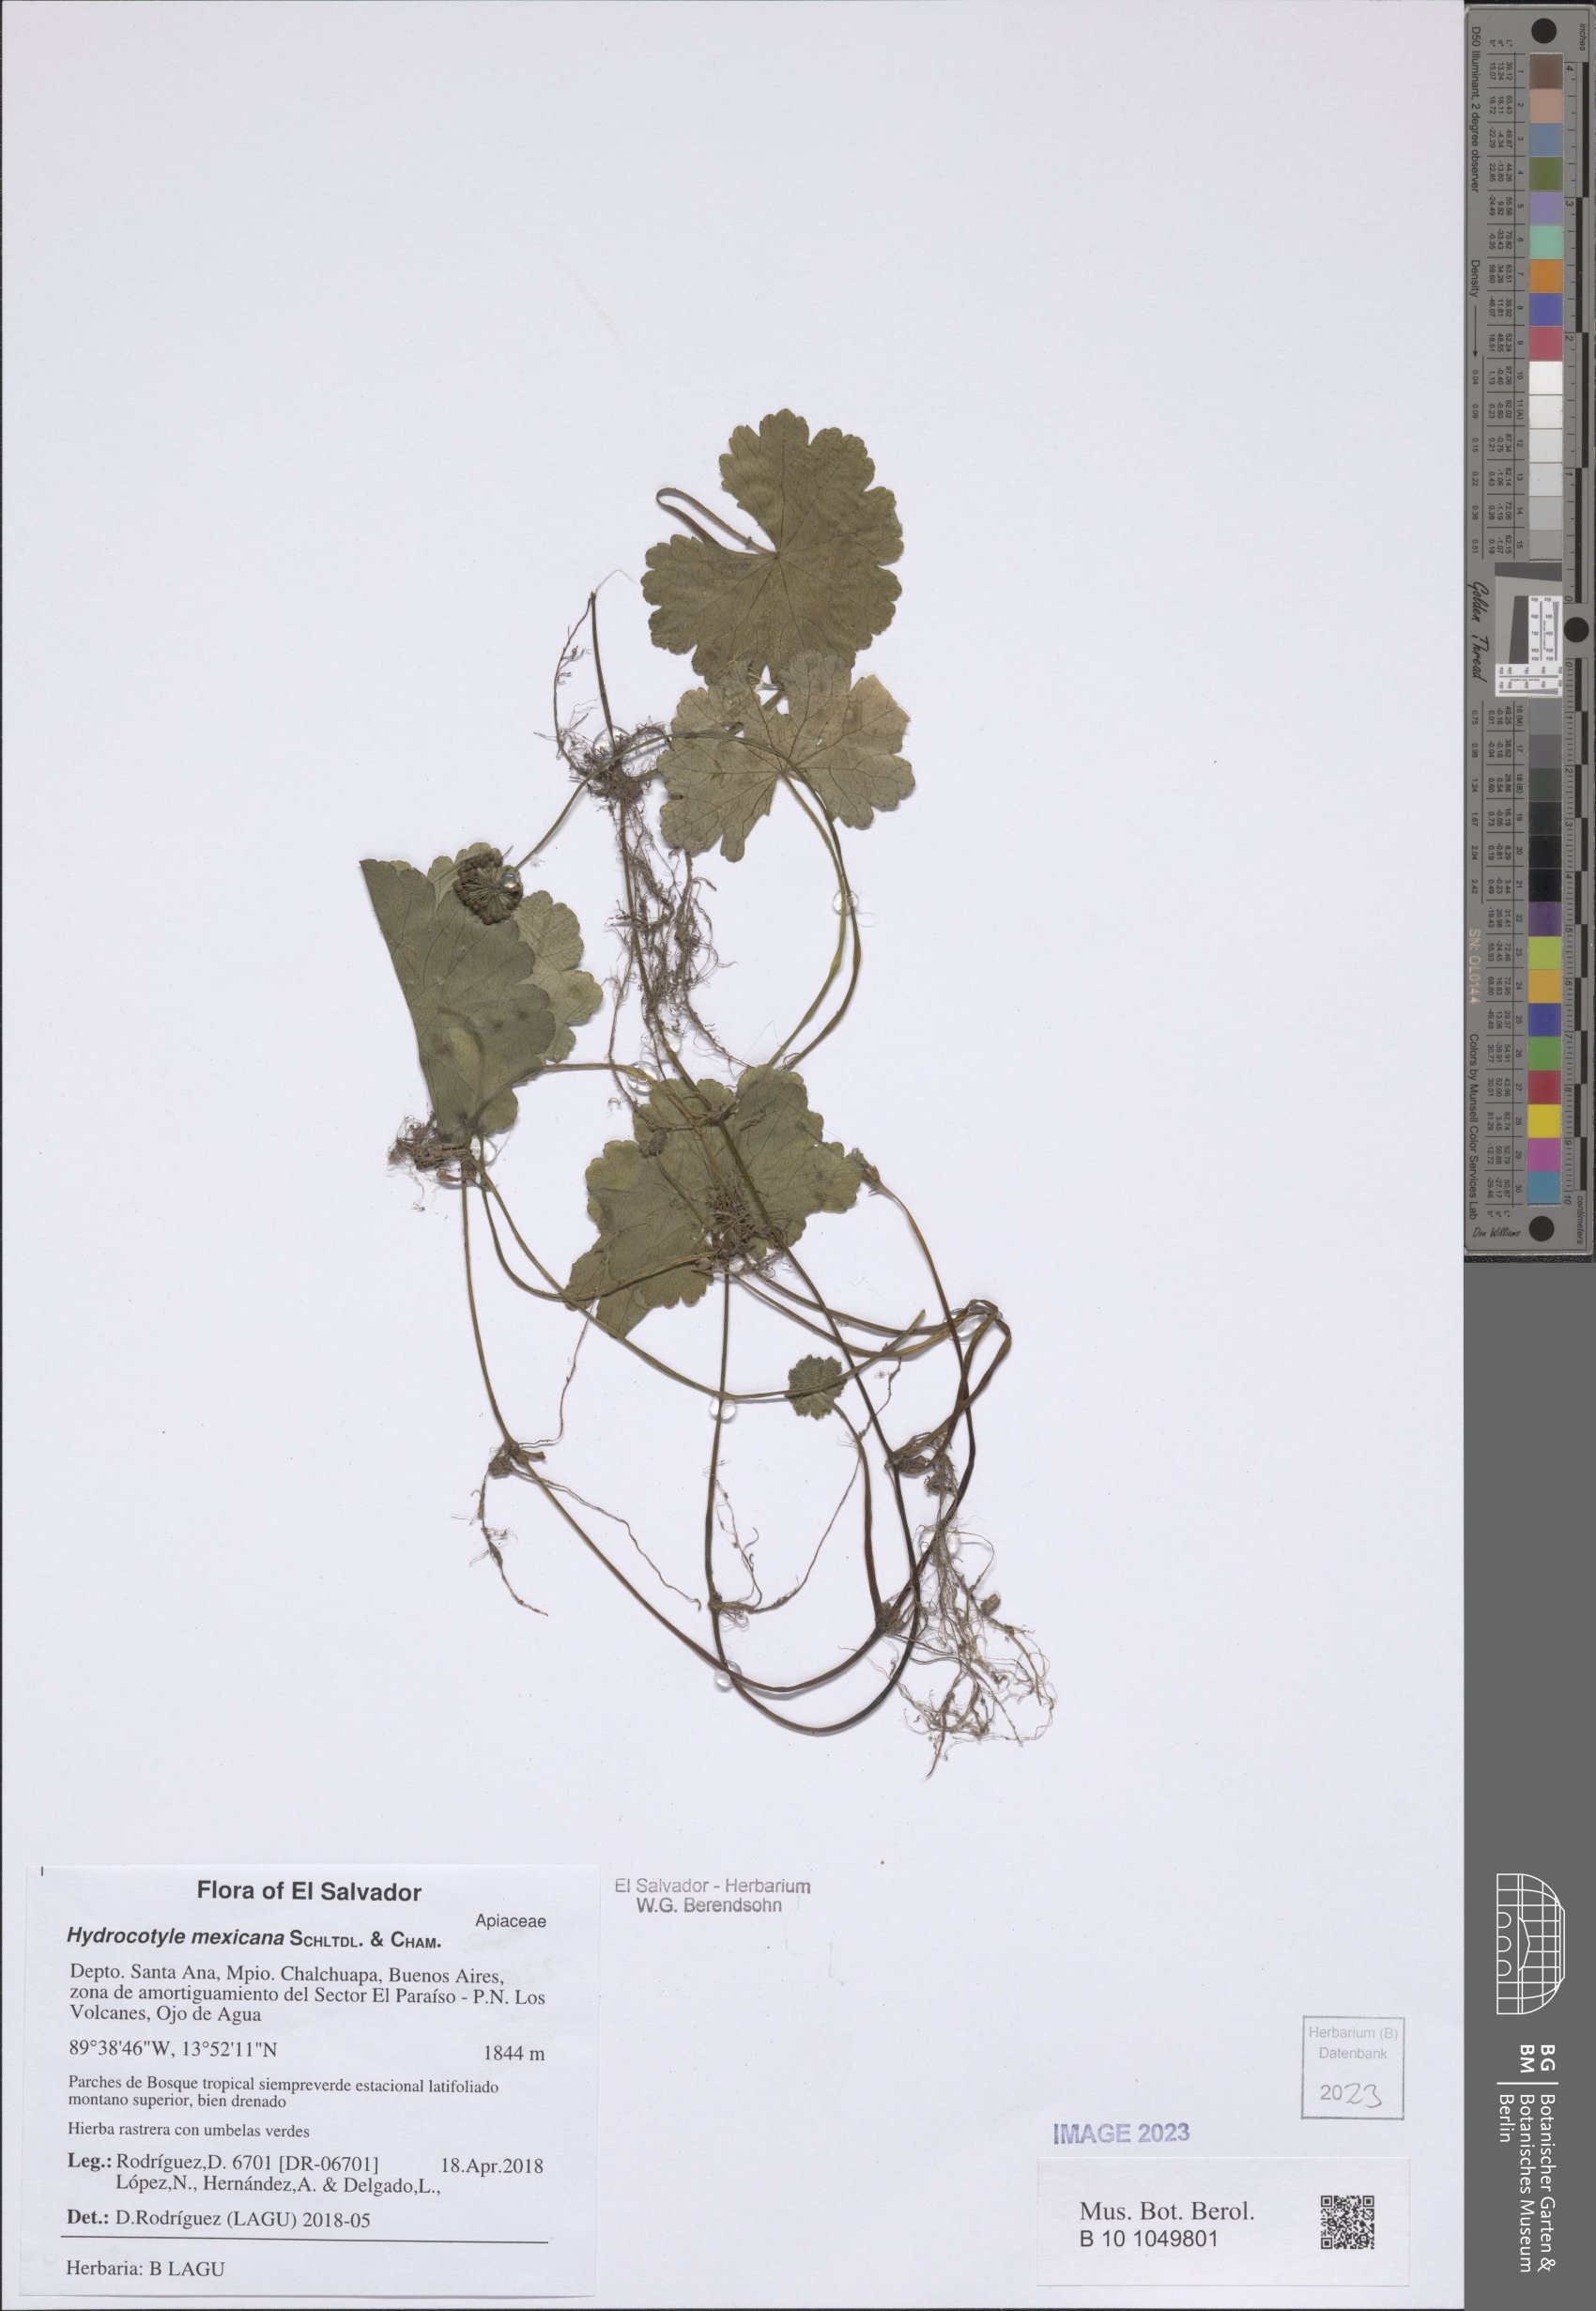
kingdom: Plantae
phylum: Tracheophyta
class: Magnoliopsida
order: Apiales
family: Araliaceae
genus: Hydrocotyle
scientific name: Hydrocotyle mexicana
